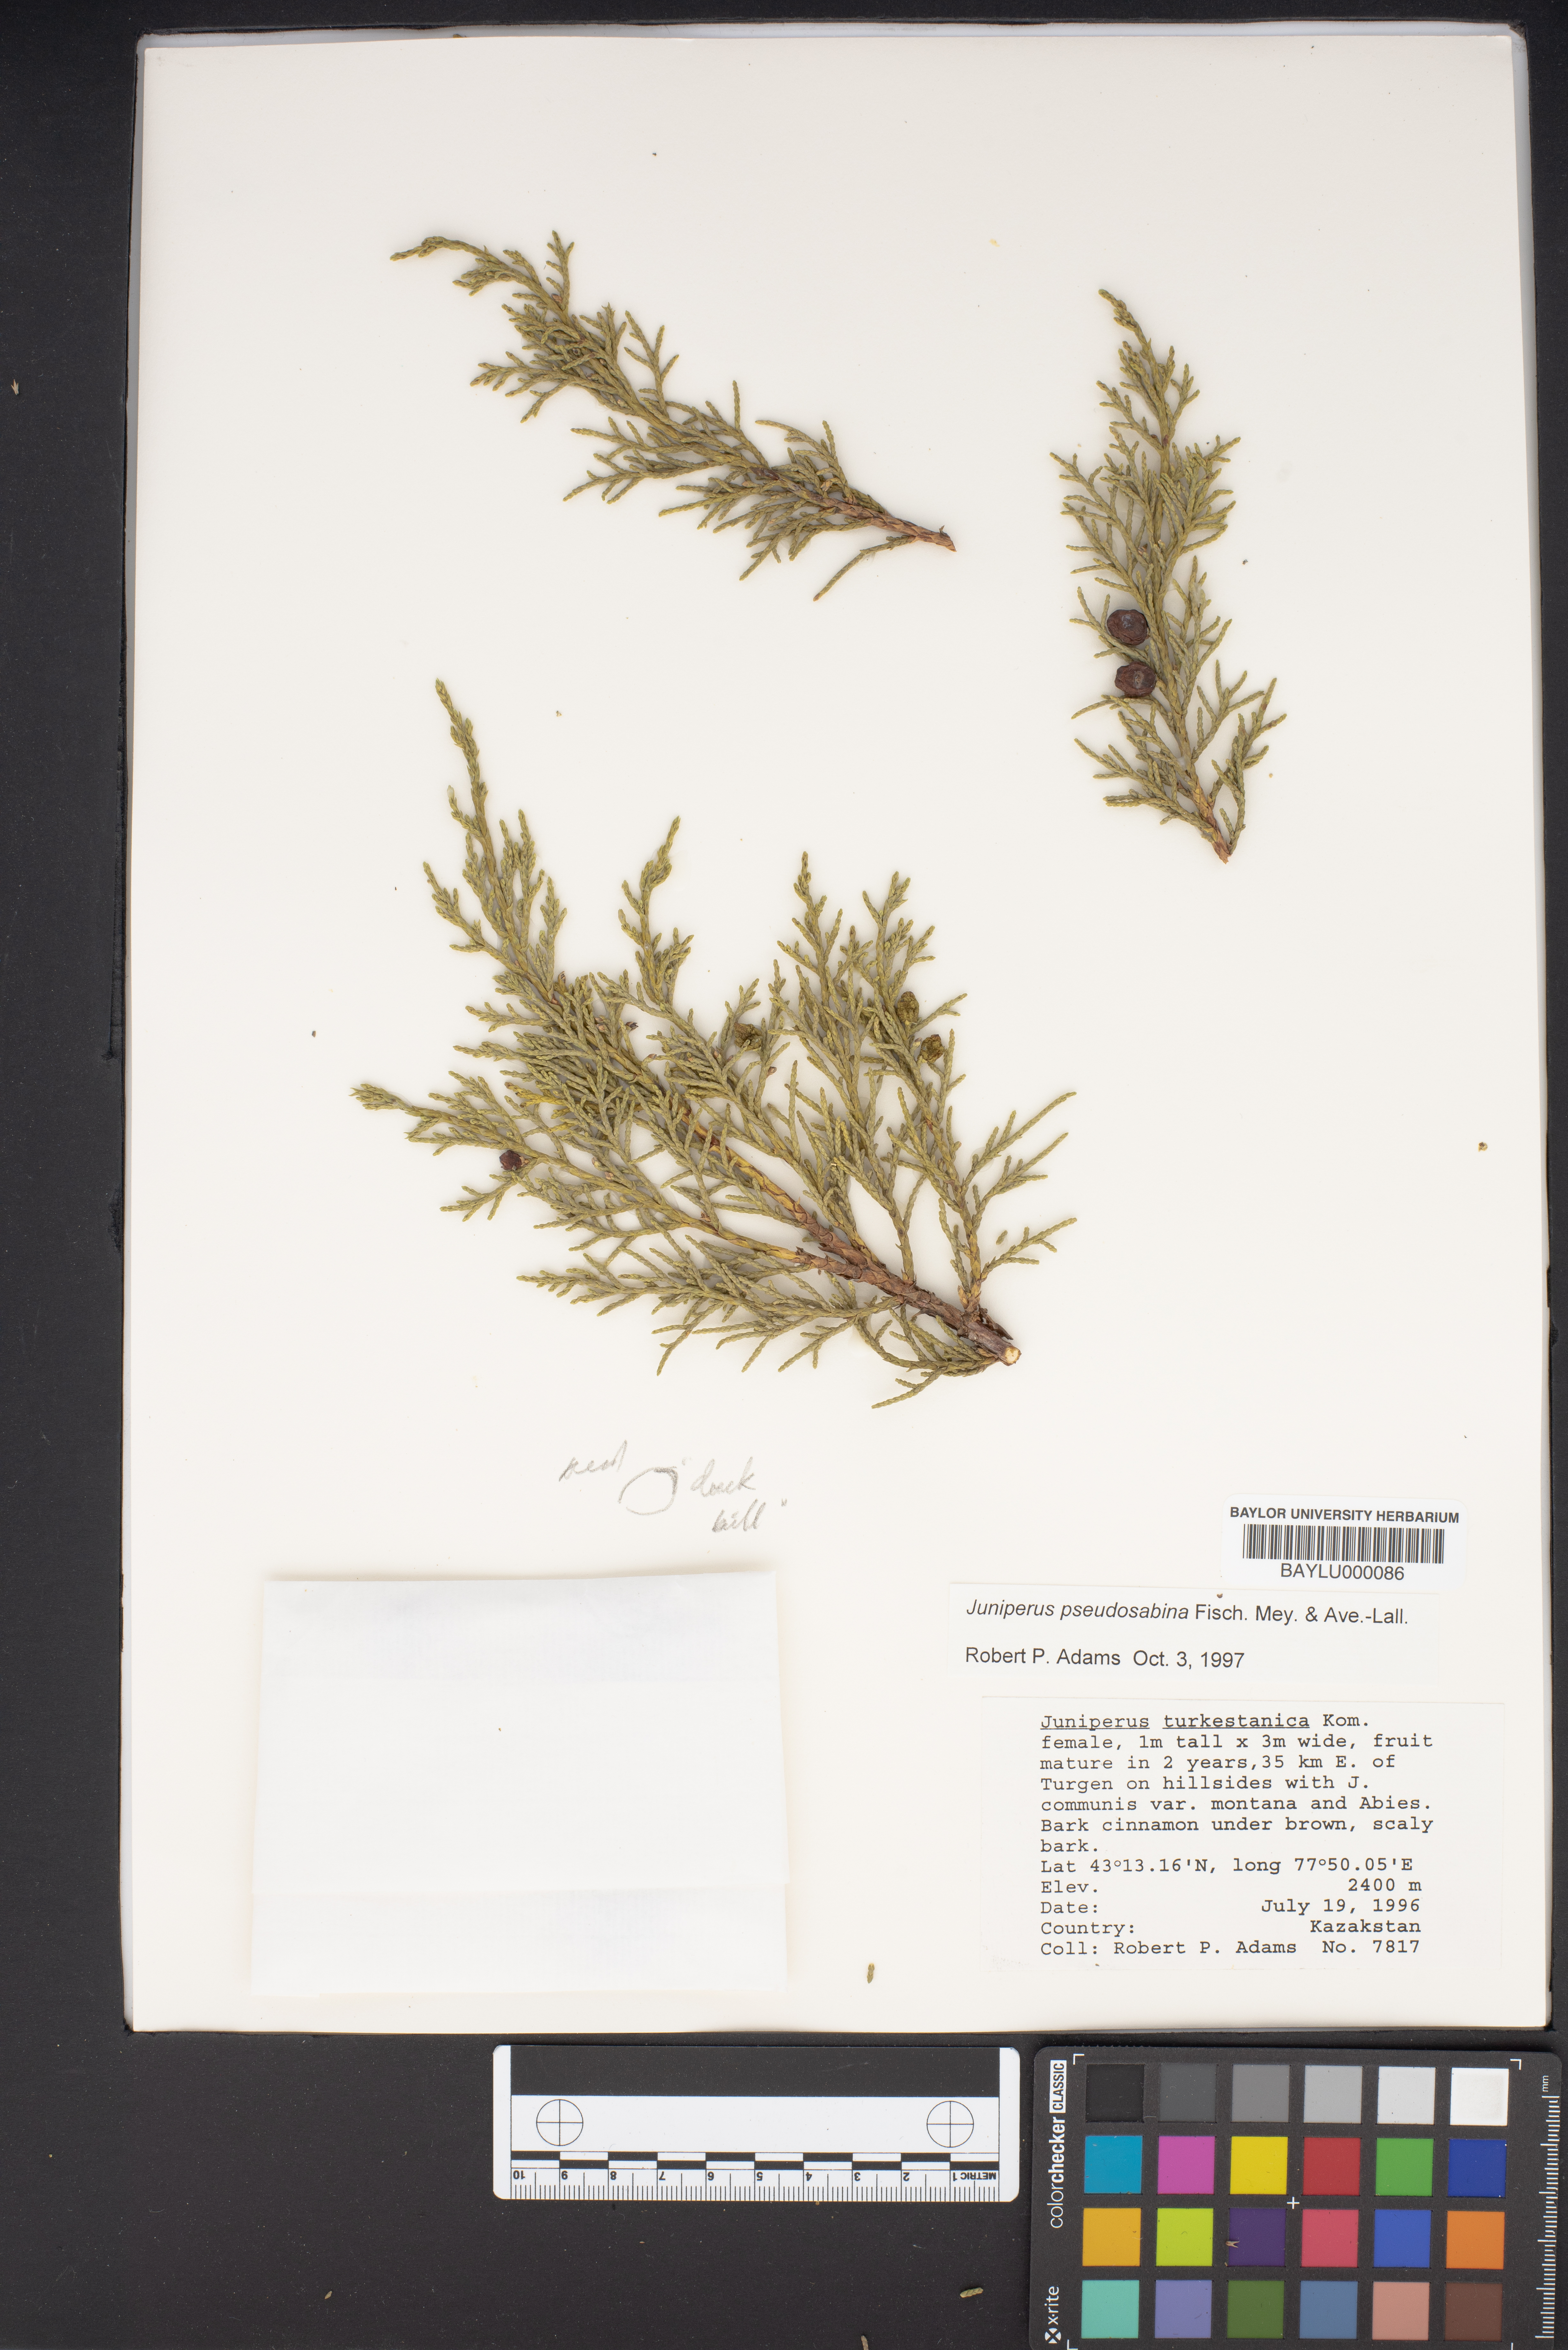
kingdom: Plantae
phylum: Tracheophyta
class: Pinopsida
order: Pinales
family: Cupressaceae
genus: Juniperus
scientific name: Juniperus pseudosabina
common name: Turkestan juniper
